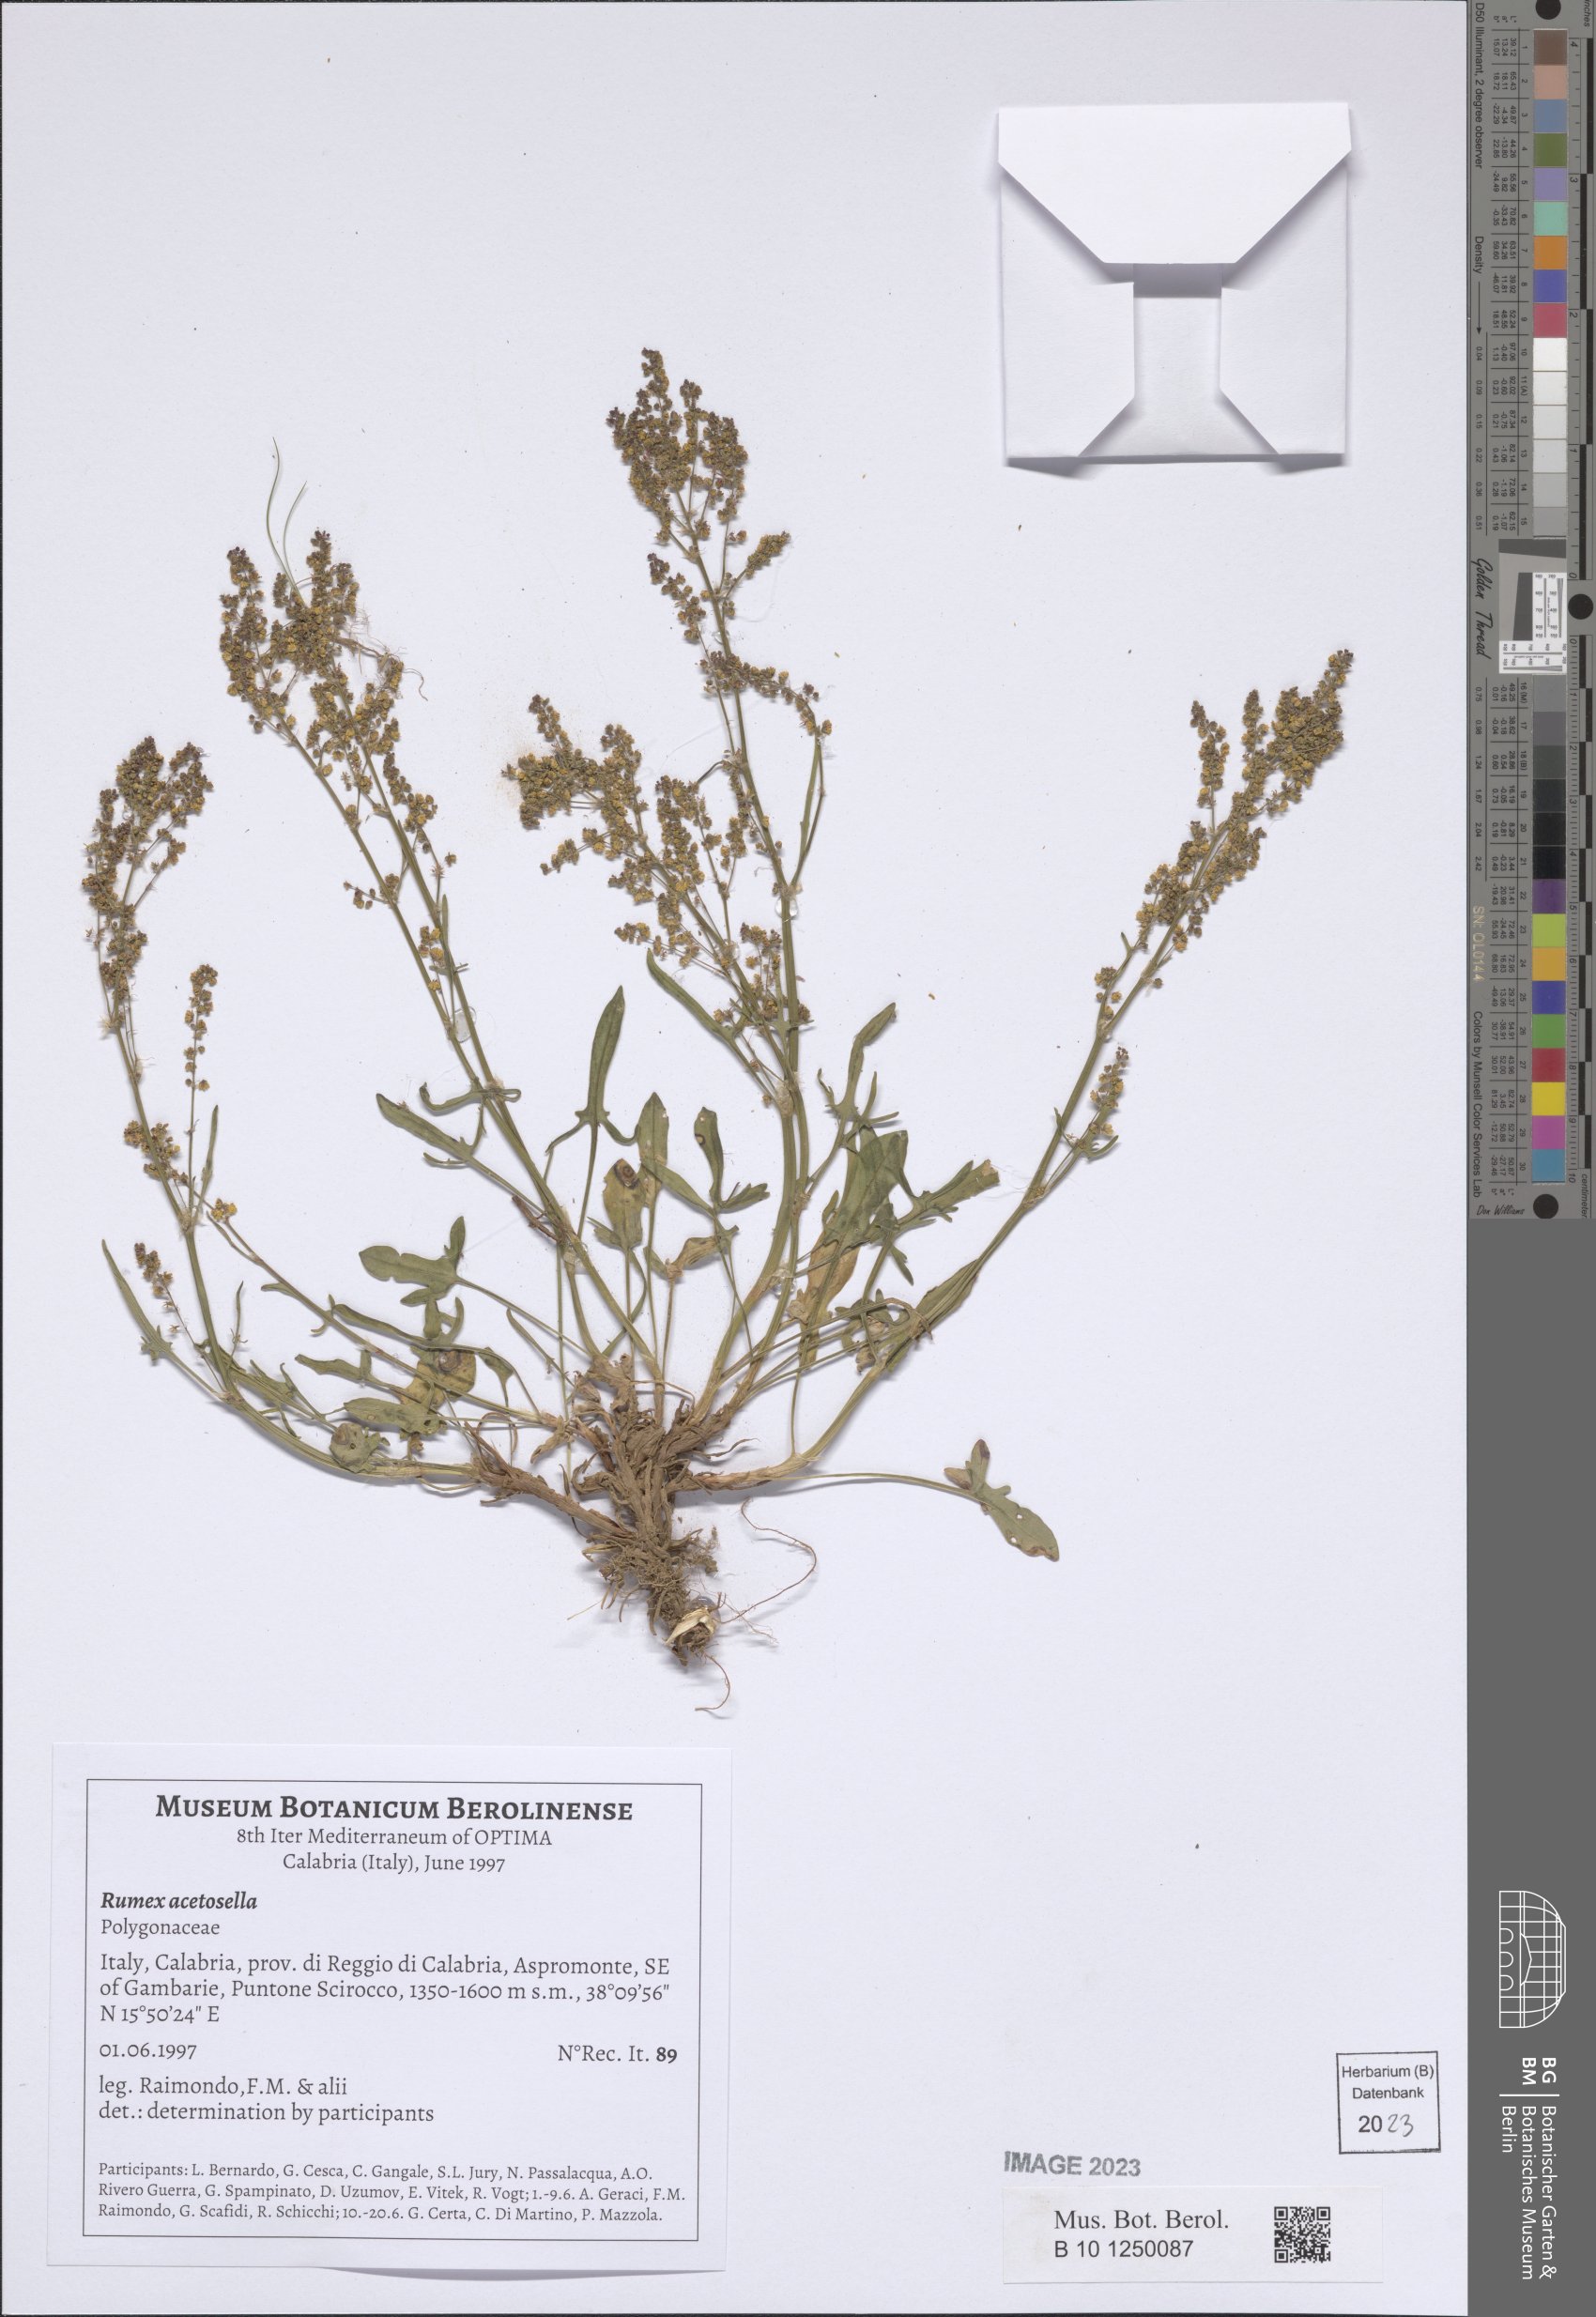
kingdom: Plantae
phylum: Tracheophyta
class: Magnoliopsida
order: Caryophyllales
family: Polygonaceae
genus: Rumex
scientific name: Rumex acetosella
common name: Common sheep sorrel
